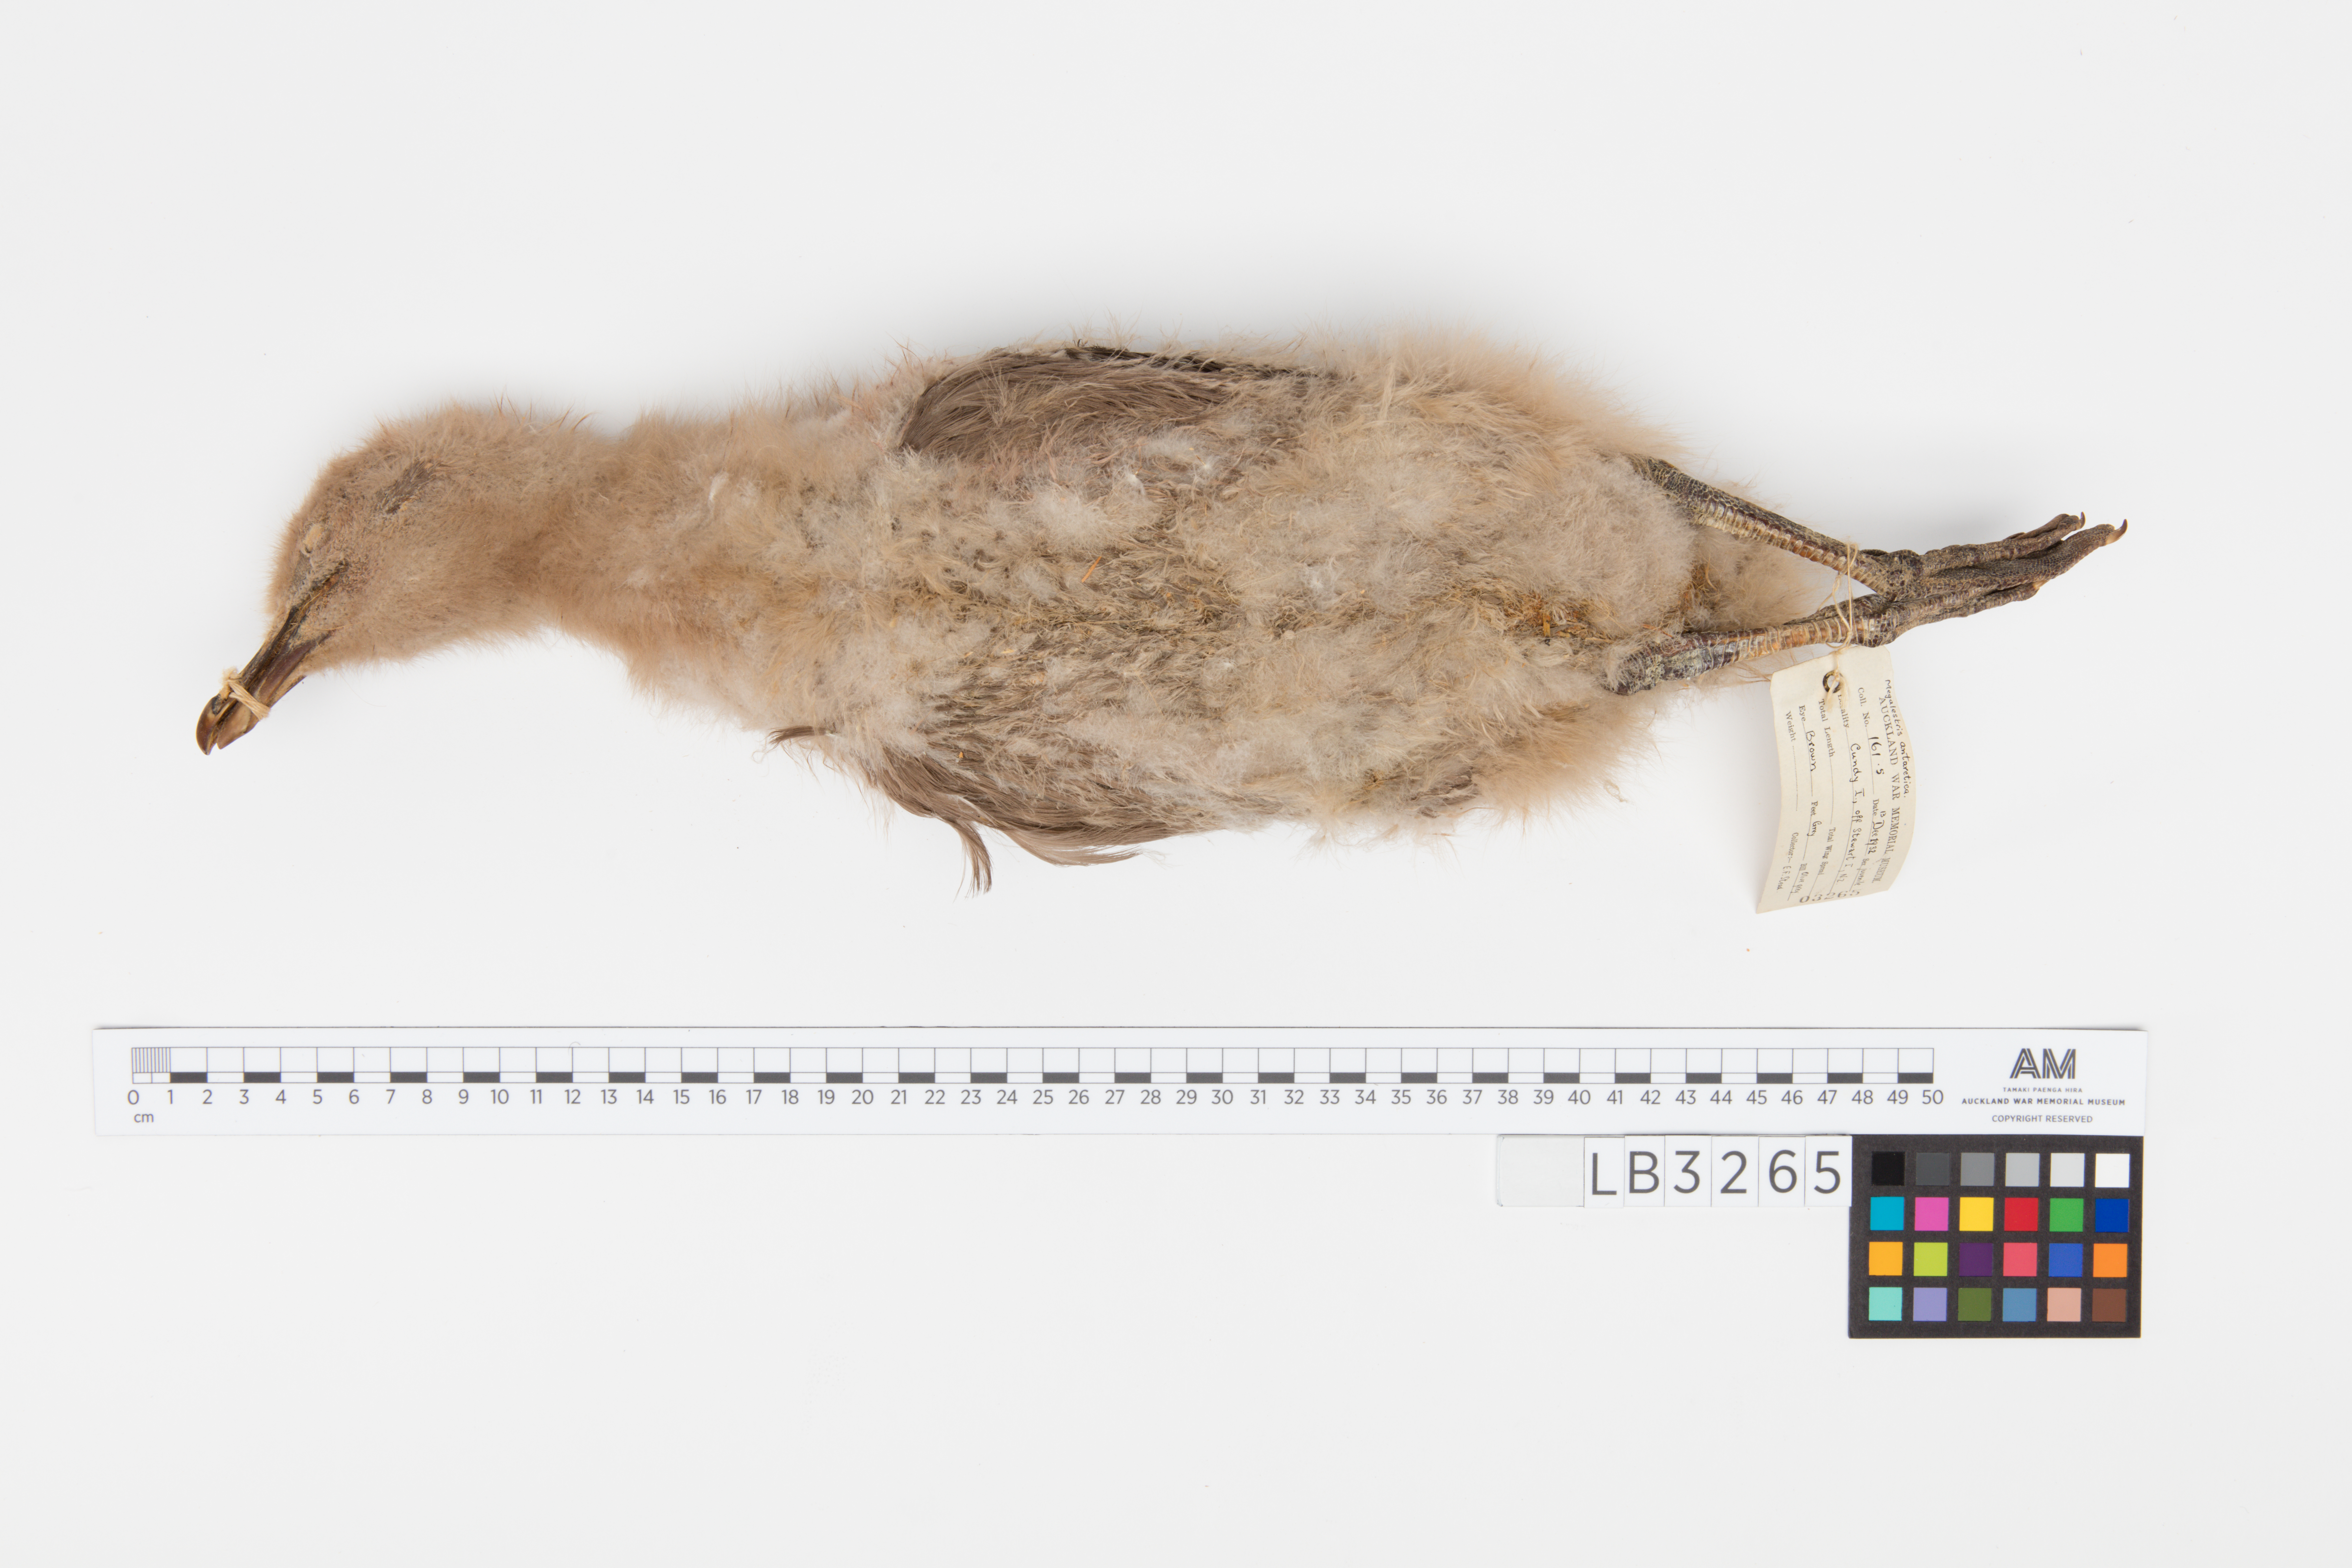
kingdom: Animalia
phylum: Chordata
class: Aves
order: Charadriiformes
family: Stercorariidae
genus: Stercorarius
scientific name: Stercorarius antarcticus
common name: Brown skua
